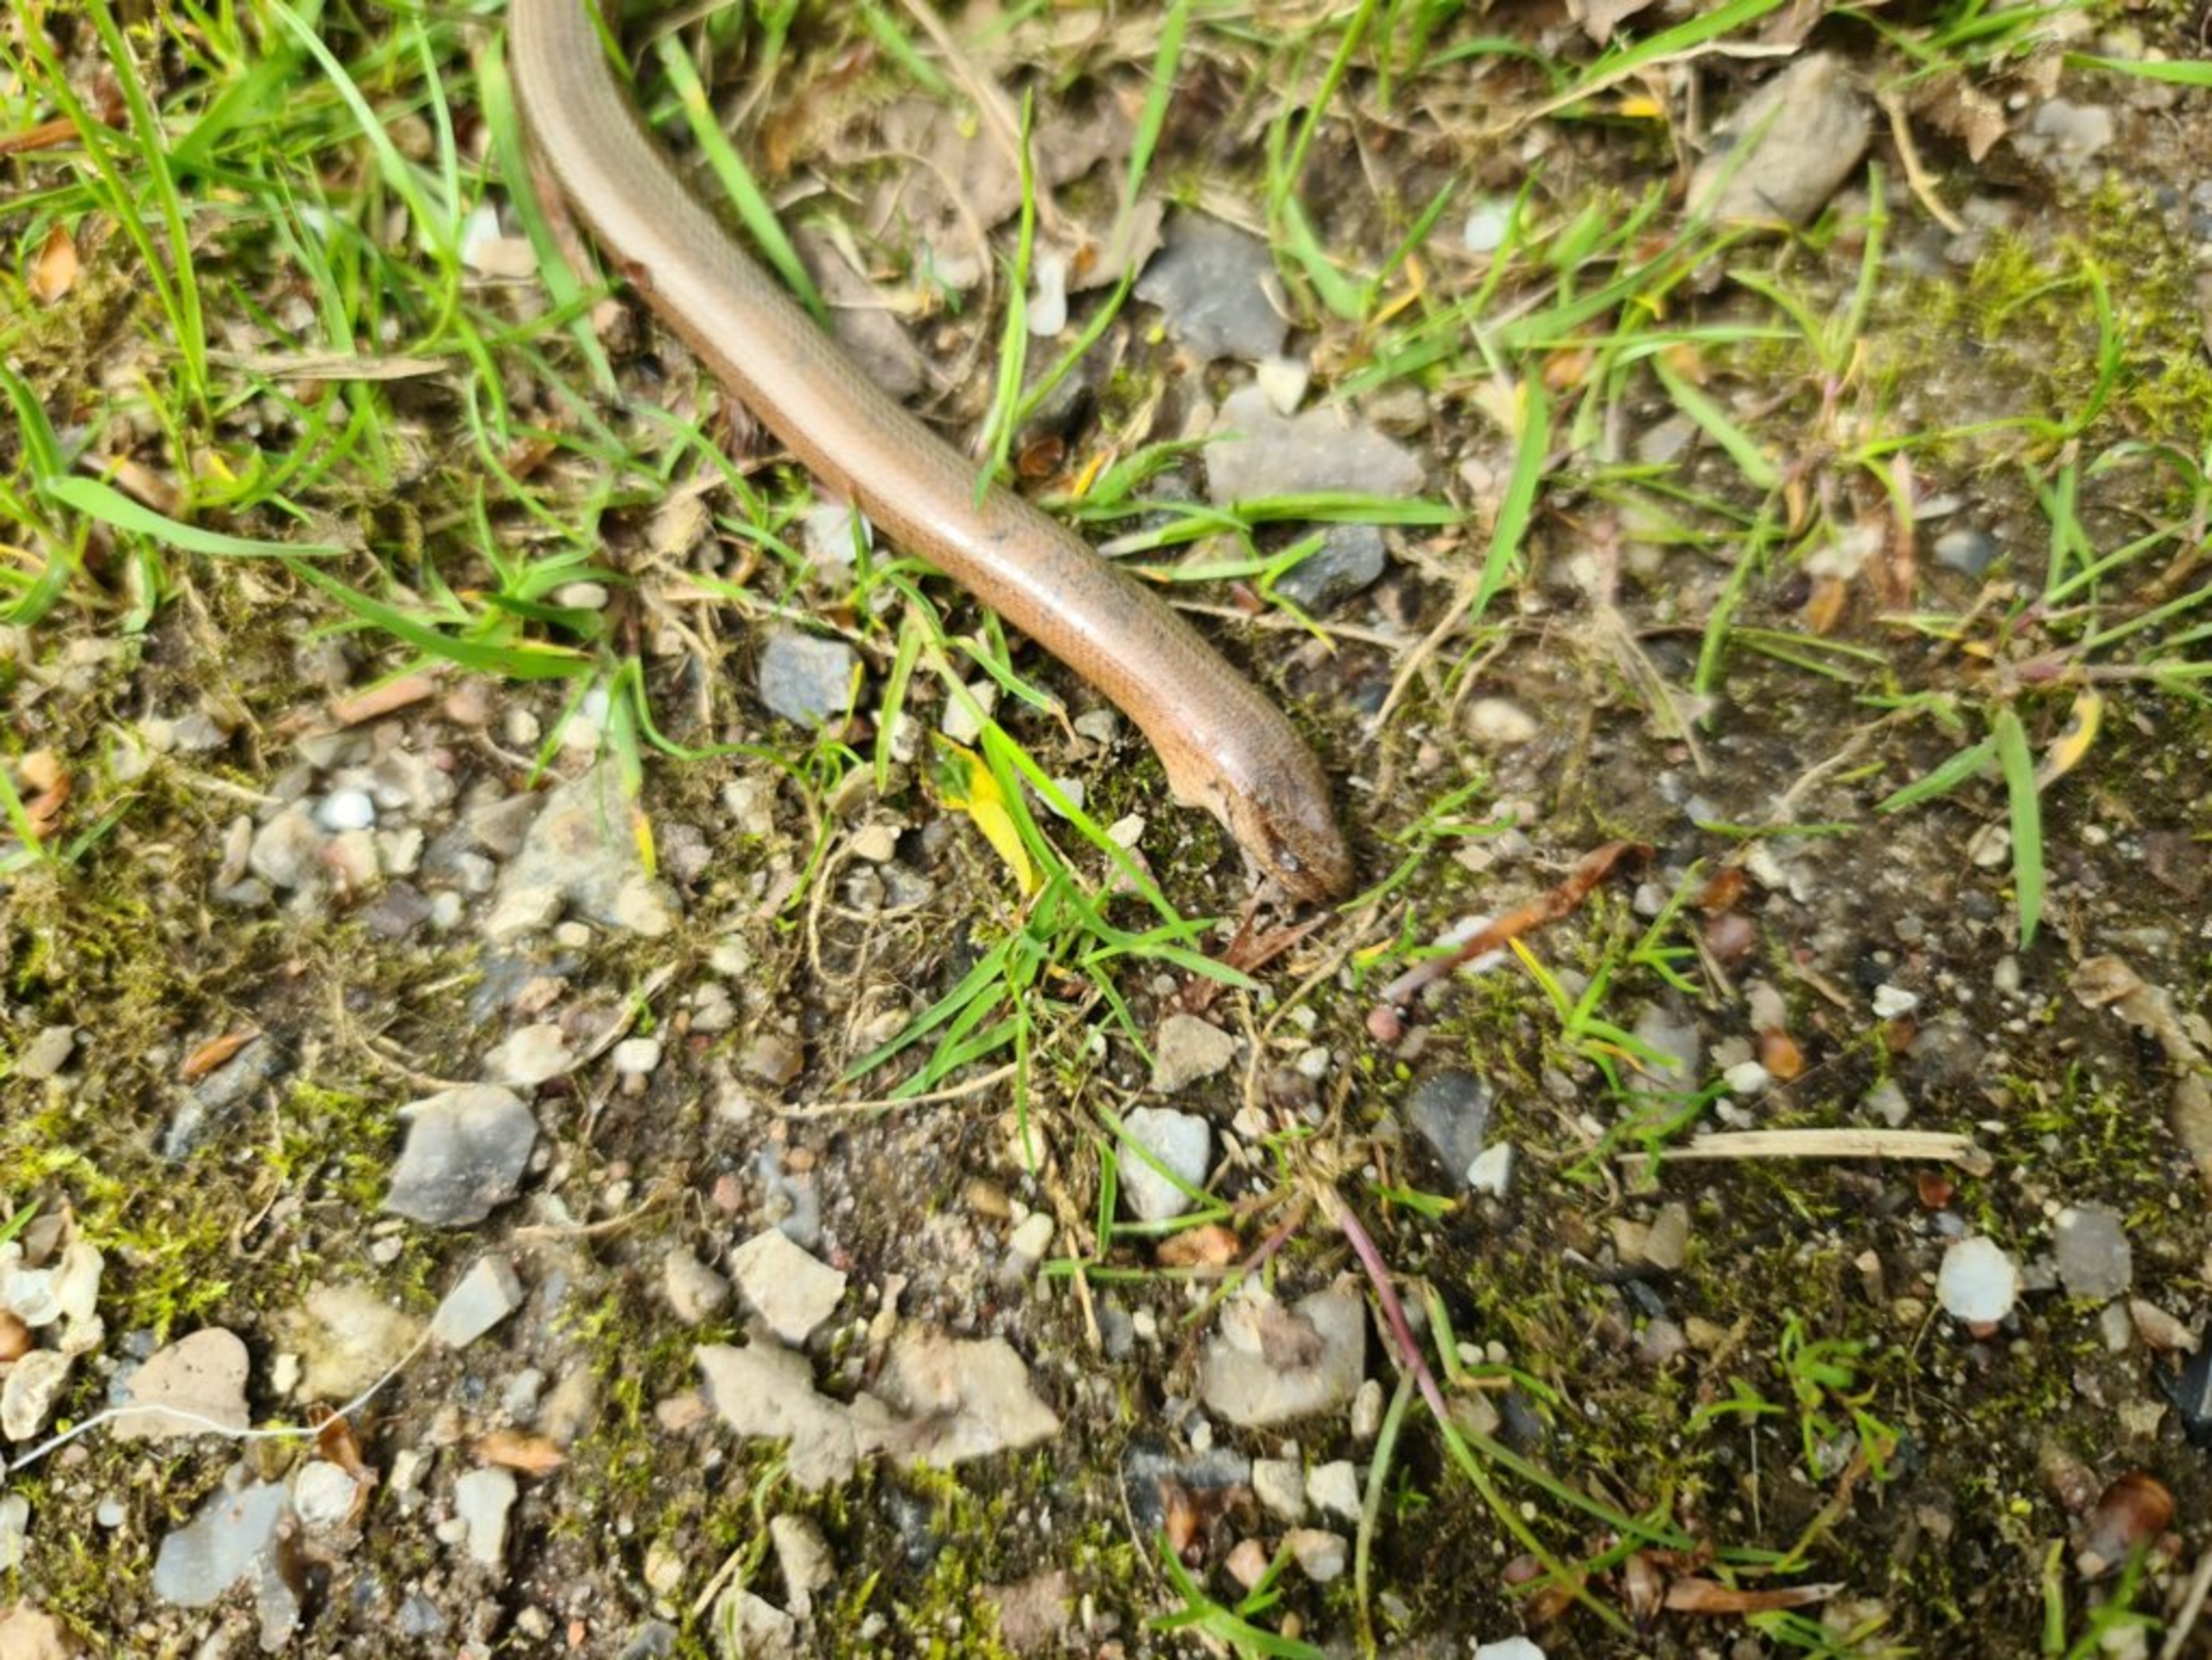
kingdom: Animalia
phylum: Chordata
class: Squamata
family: Anguidae
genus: Anguis
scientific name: Anguis fragilis
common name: Stålorm
